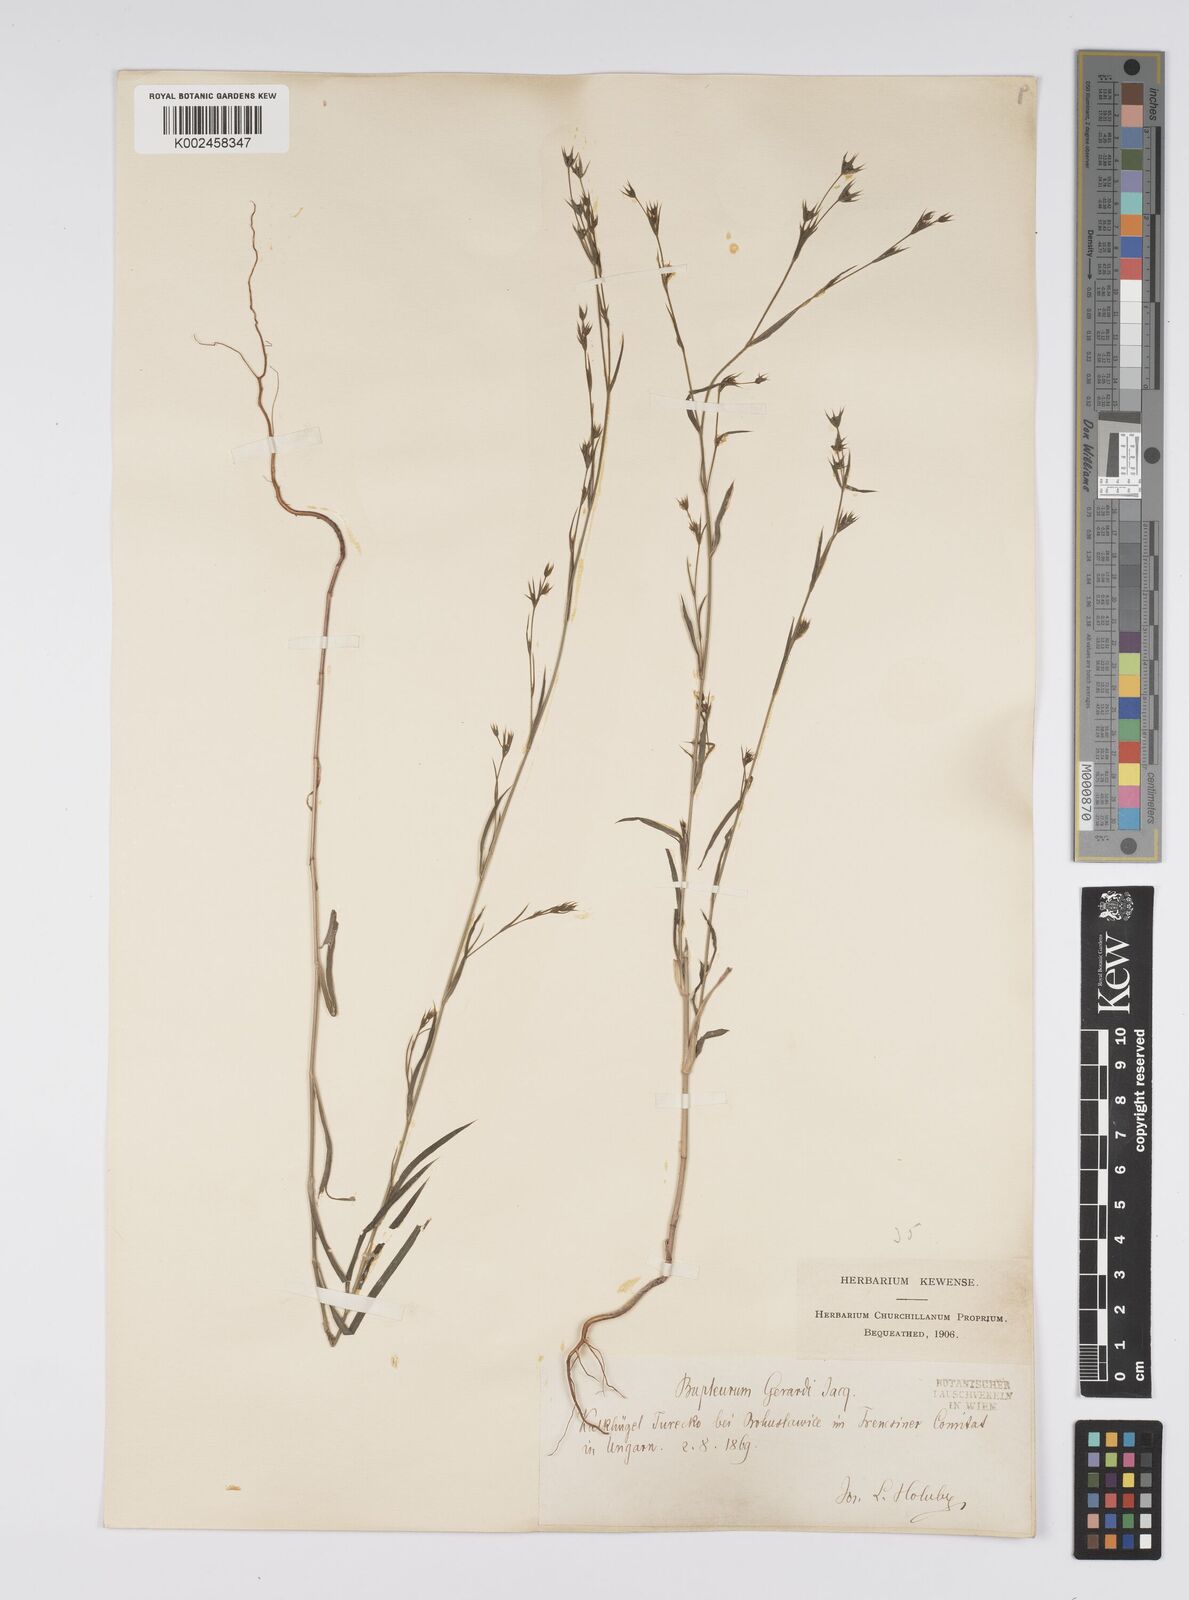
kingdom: Plantae
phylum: Tracheophyta
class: Magnoliopsida
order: Apiales
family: Apiaceae
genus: Bupleurum
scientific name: Bupleurum gerardi
